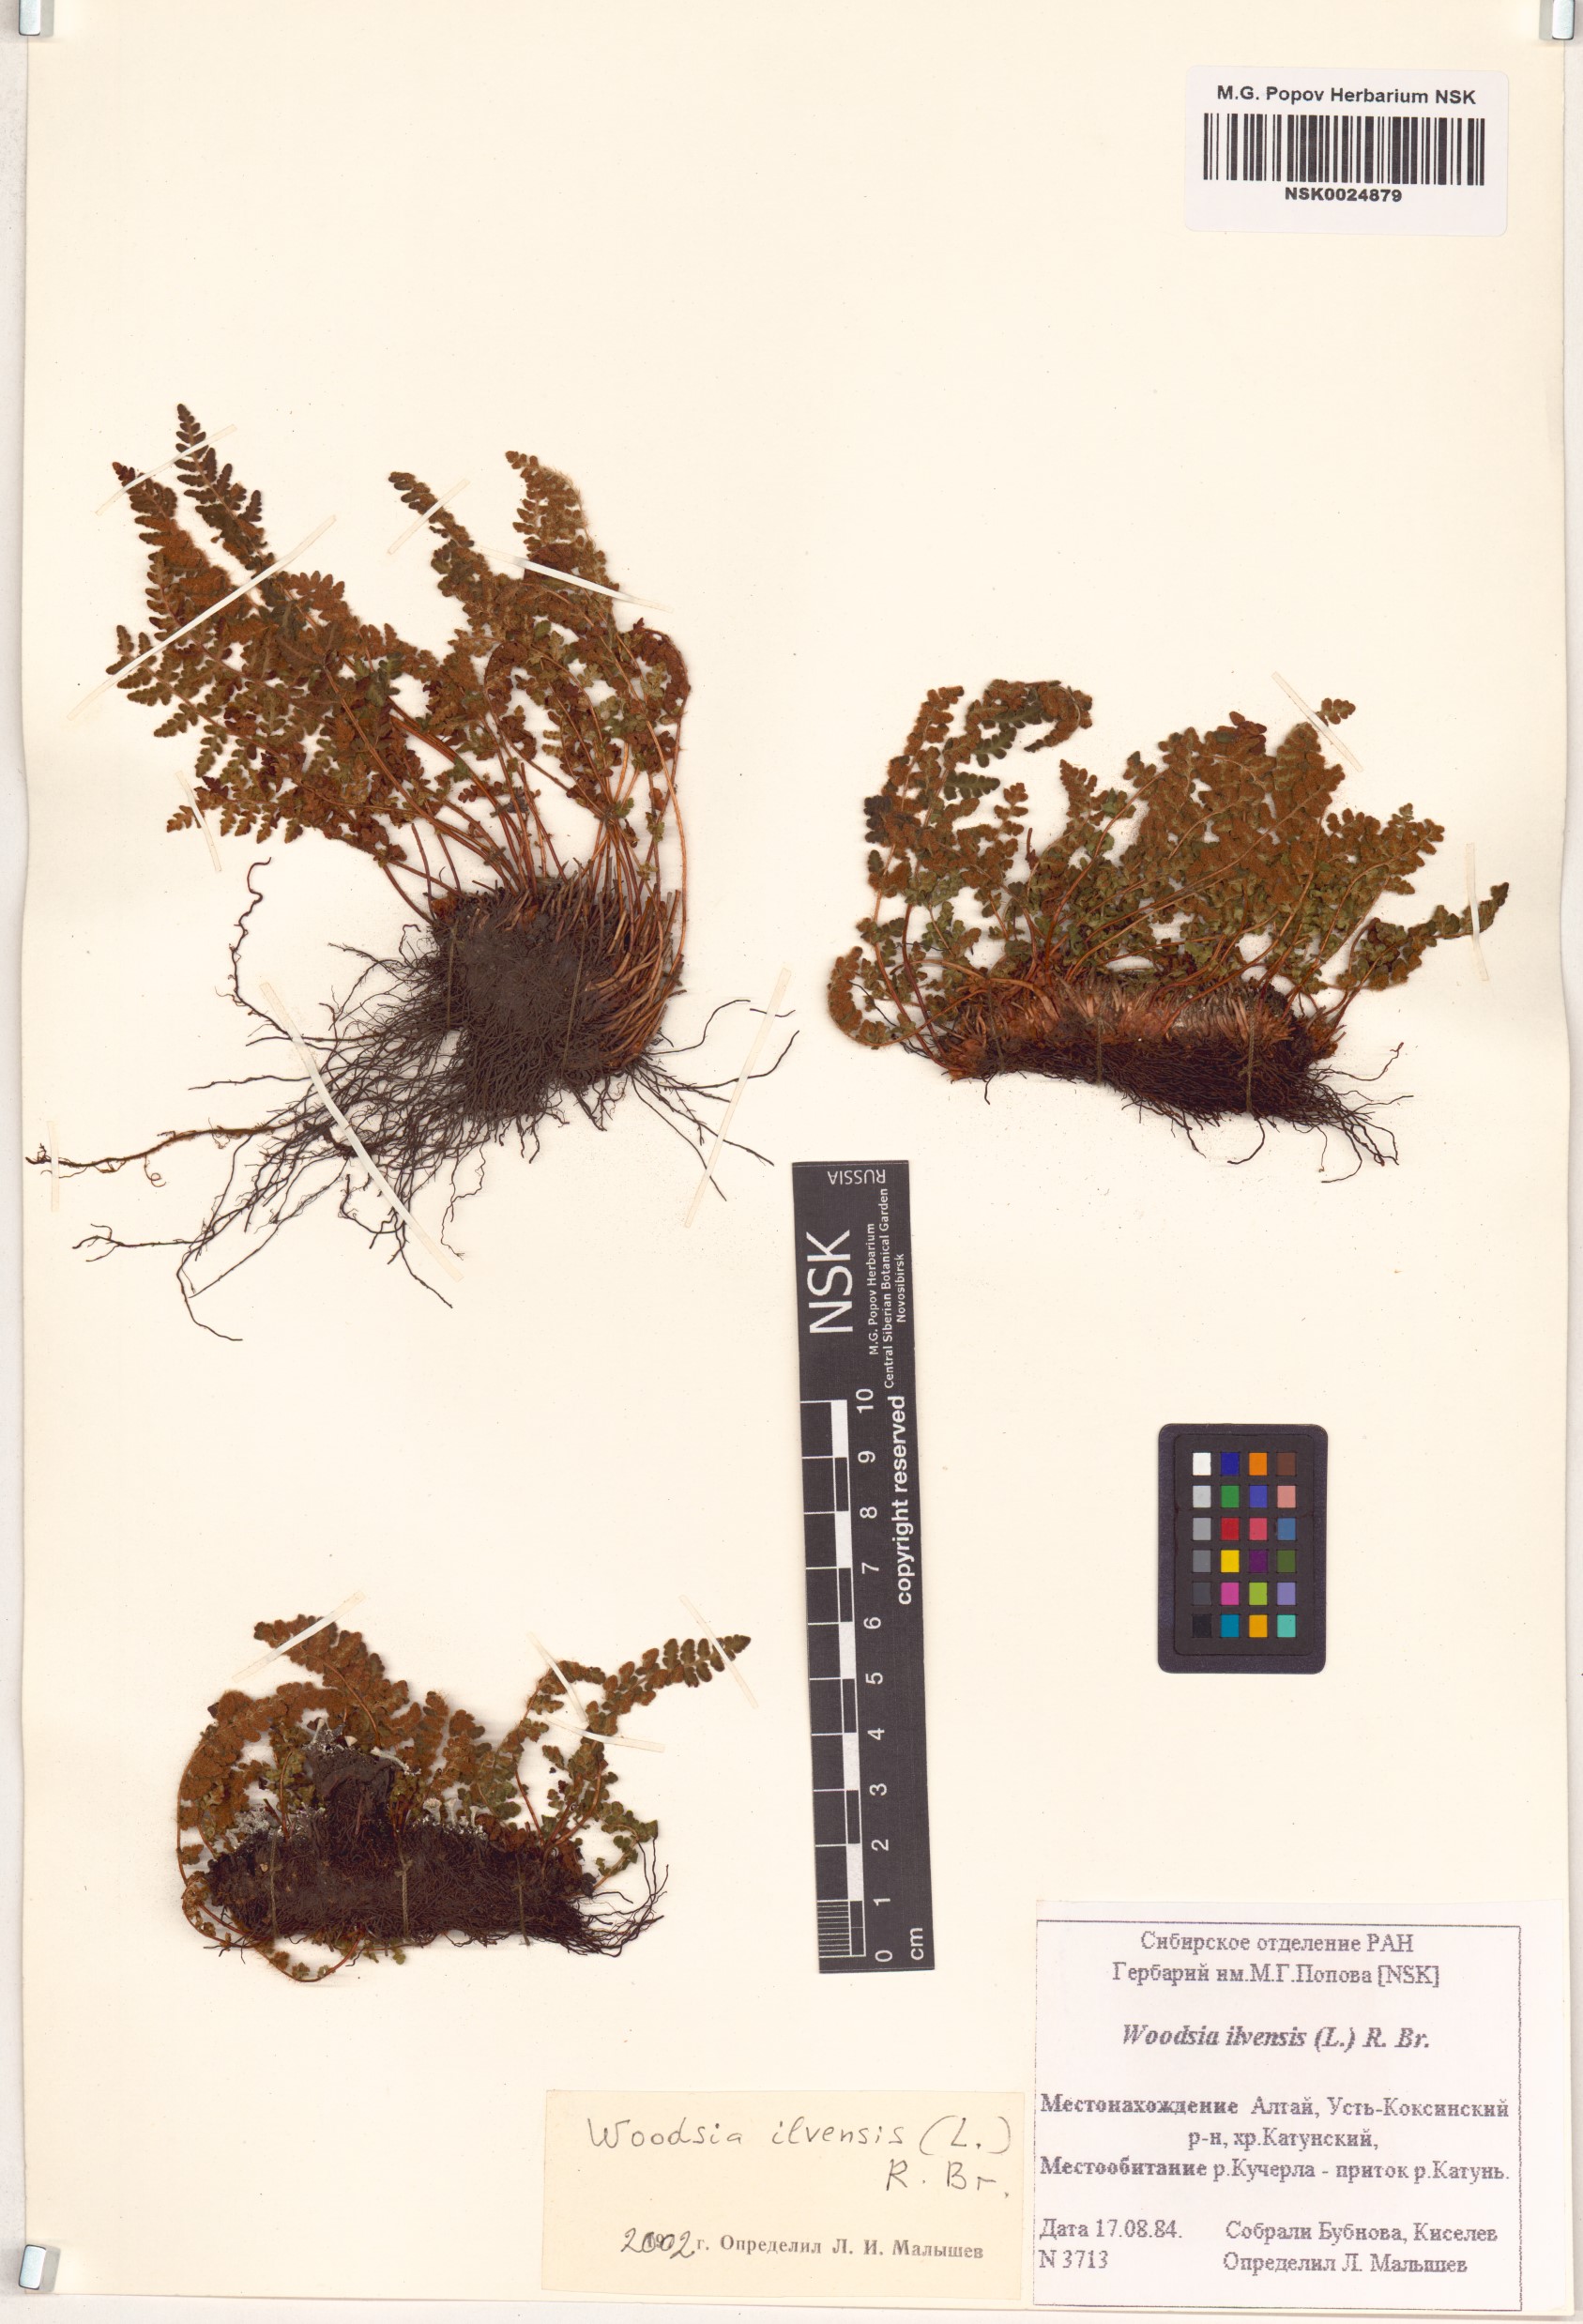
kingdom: Plantae
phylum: Tracheophyta
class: Polypodiopsida
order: Polypodiales
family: Woodsiaceae
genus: Woodsia
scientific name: Woodsia ilvensis
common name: Fragrant woodsia
